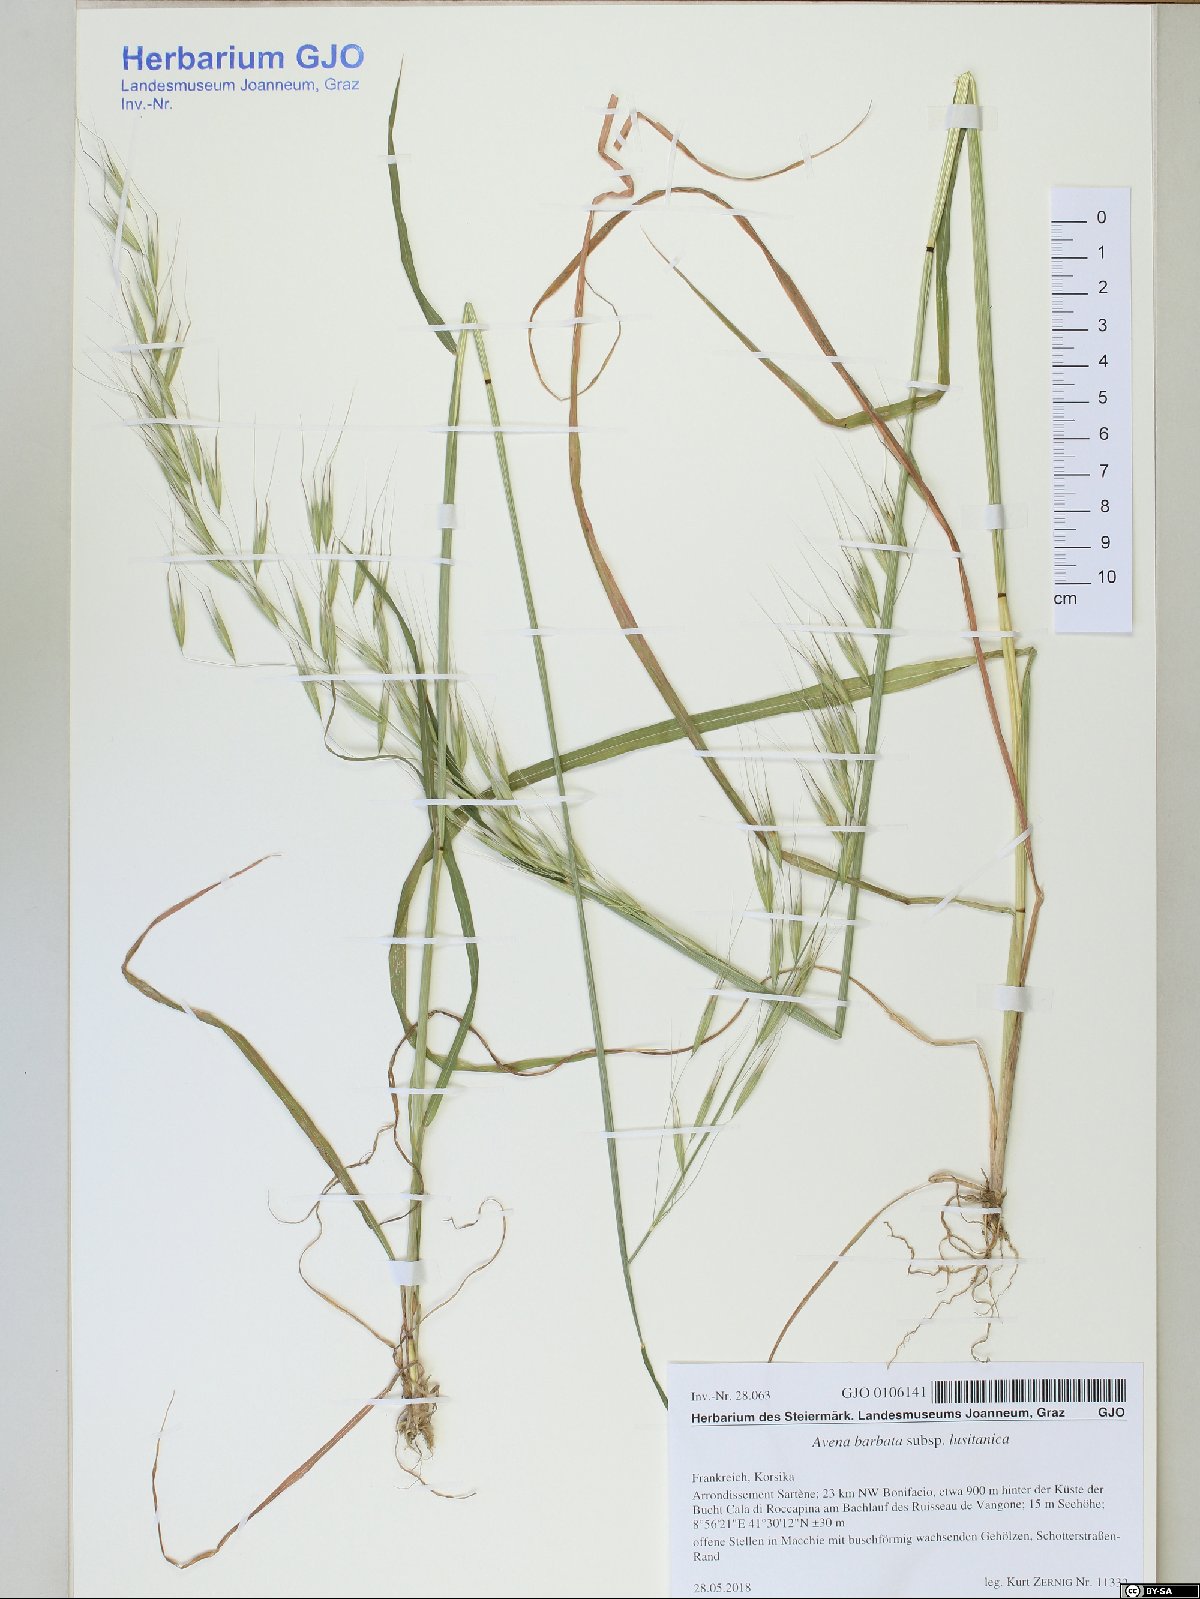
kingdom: Plantae
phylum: Tracheophyta
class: Liliopsida
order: Poales
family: Poaceae
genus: Avena
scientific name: Avena barbata
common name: Slender oat
